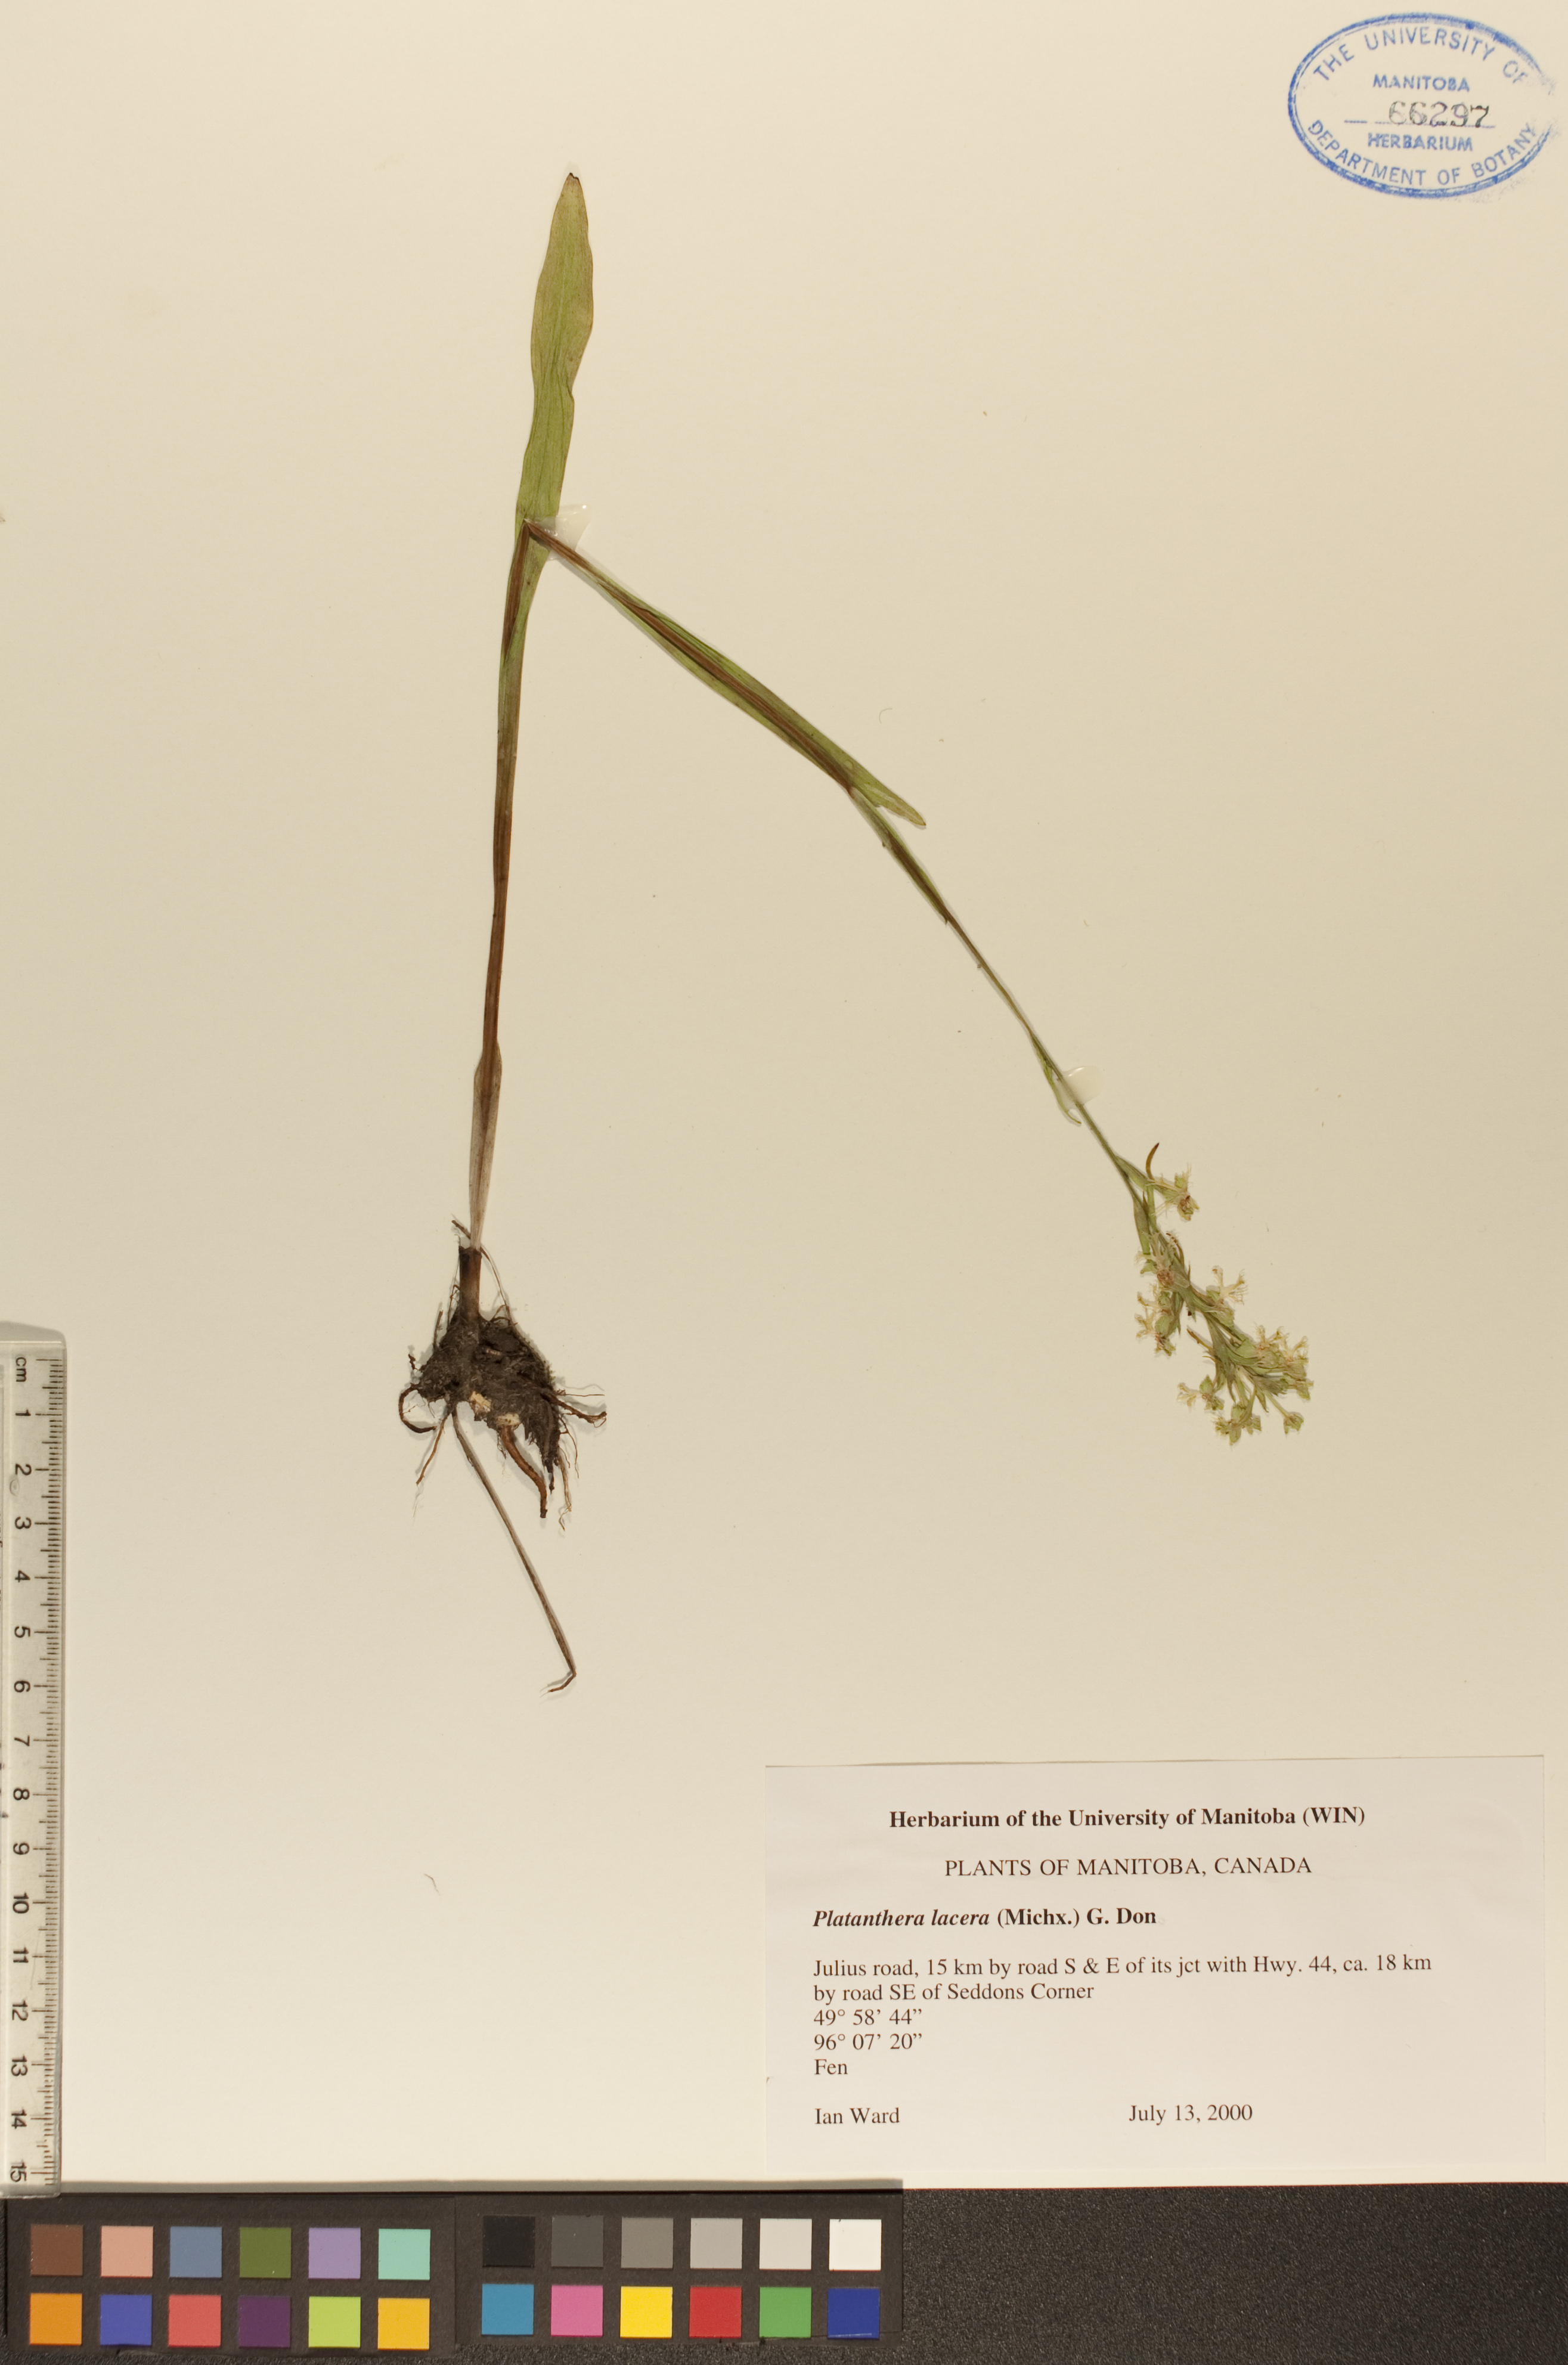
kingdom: Plantae
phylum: Tracheophyta
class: Liliopsida
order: Asparagales
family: Orchidaceae
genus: Platanthera
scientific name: Platanthera lacera
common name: Green fringed orchid
